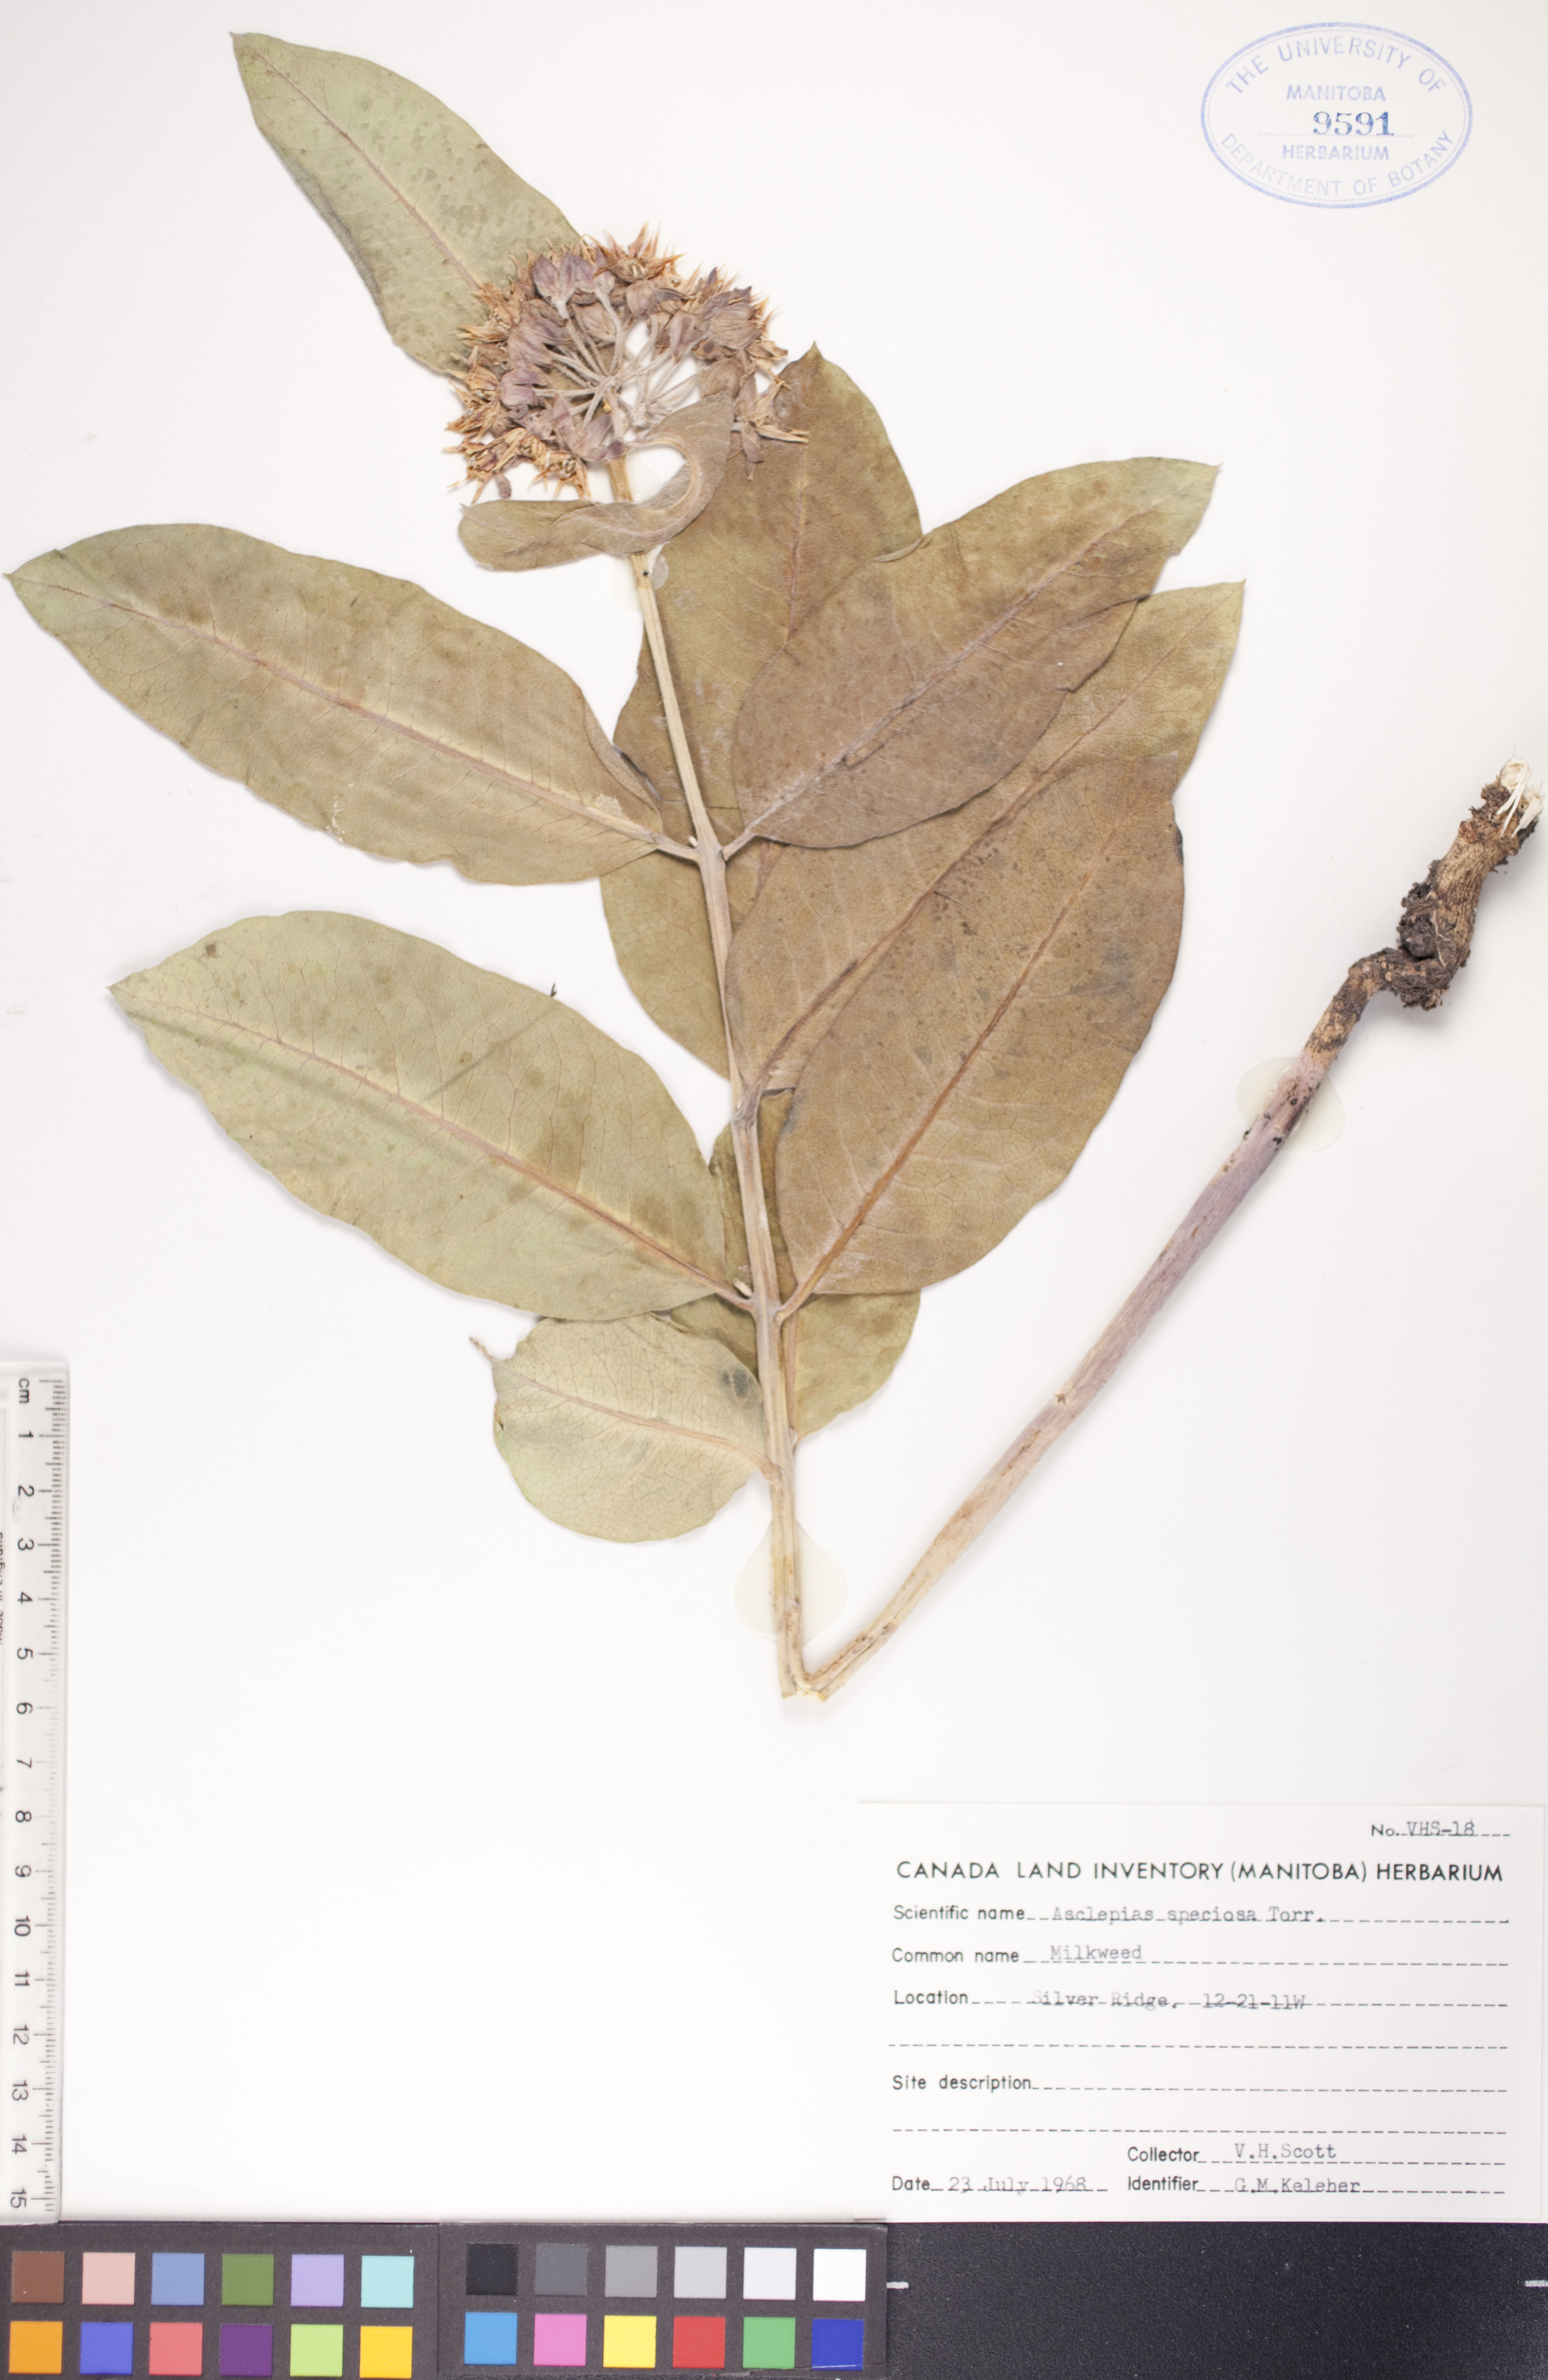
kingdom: Plantae
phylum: Tracheophyta
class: Magnoliopsida
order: Gentianales
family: Apocynaceae
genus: Asclepias
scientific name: Asclepias speciosa
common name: Showy milkweed
